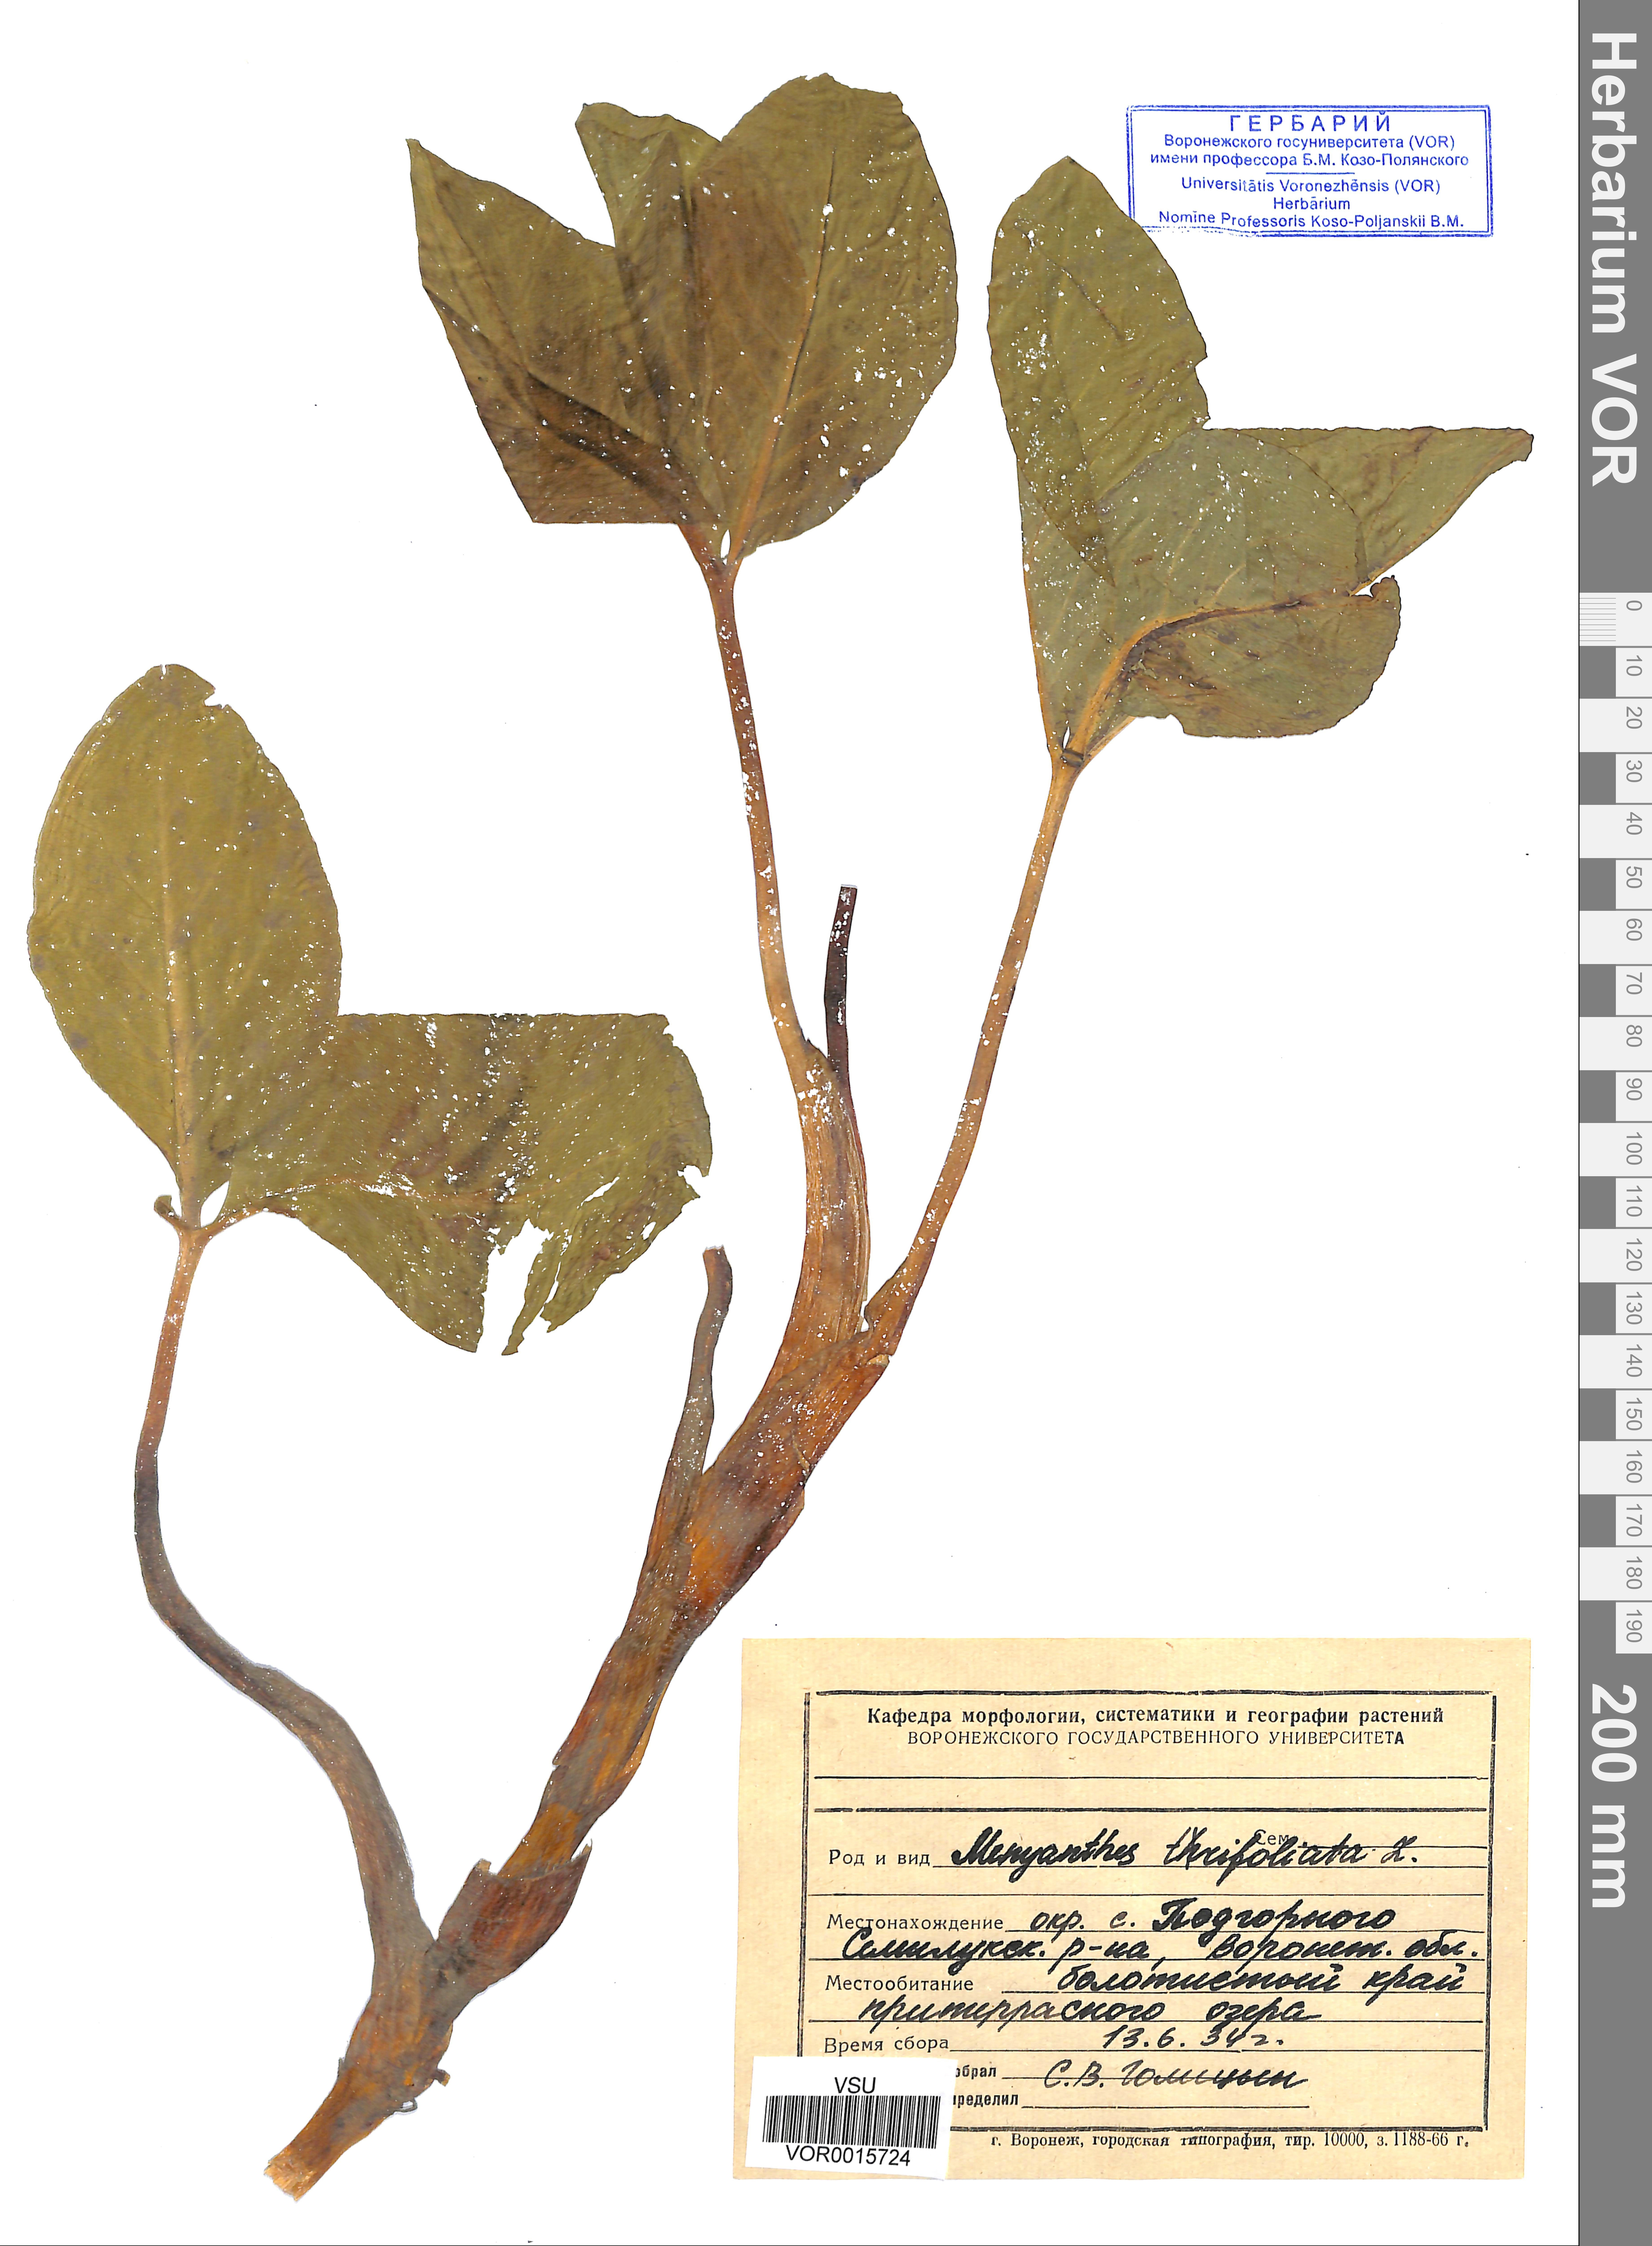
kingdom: Plantae
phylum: Tracheophyta
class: Magnoliopsida
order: Asterales
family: Menyanthaceae
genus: Menyanthes
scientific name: Menyanthes trifoliata
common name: Bogbean
